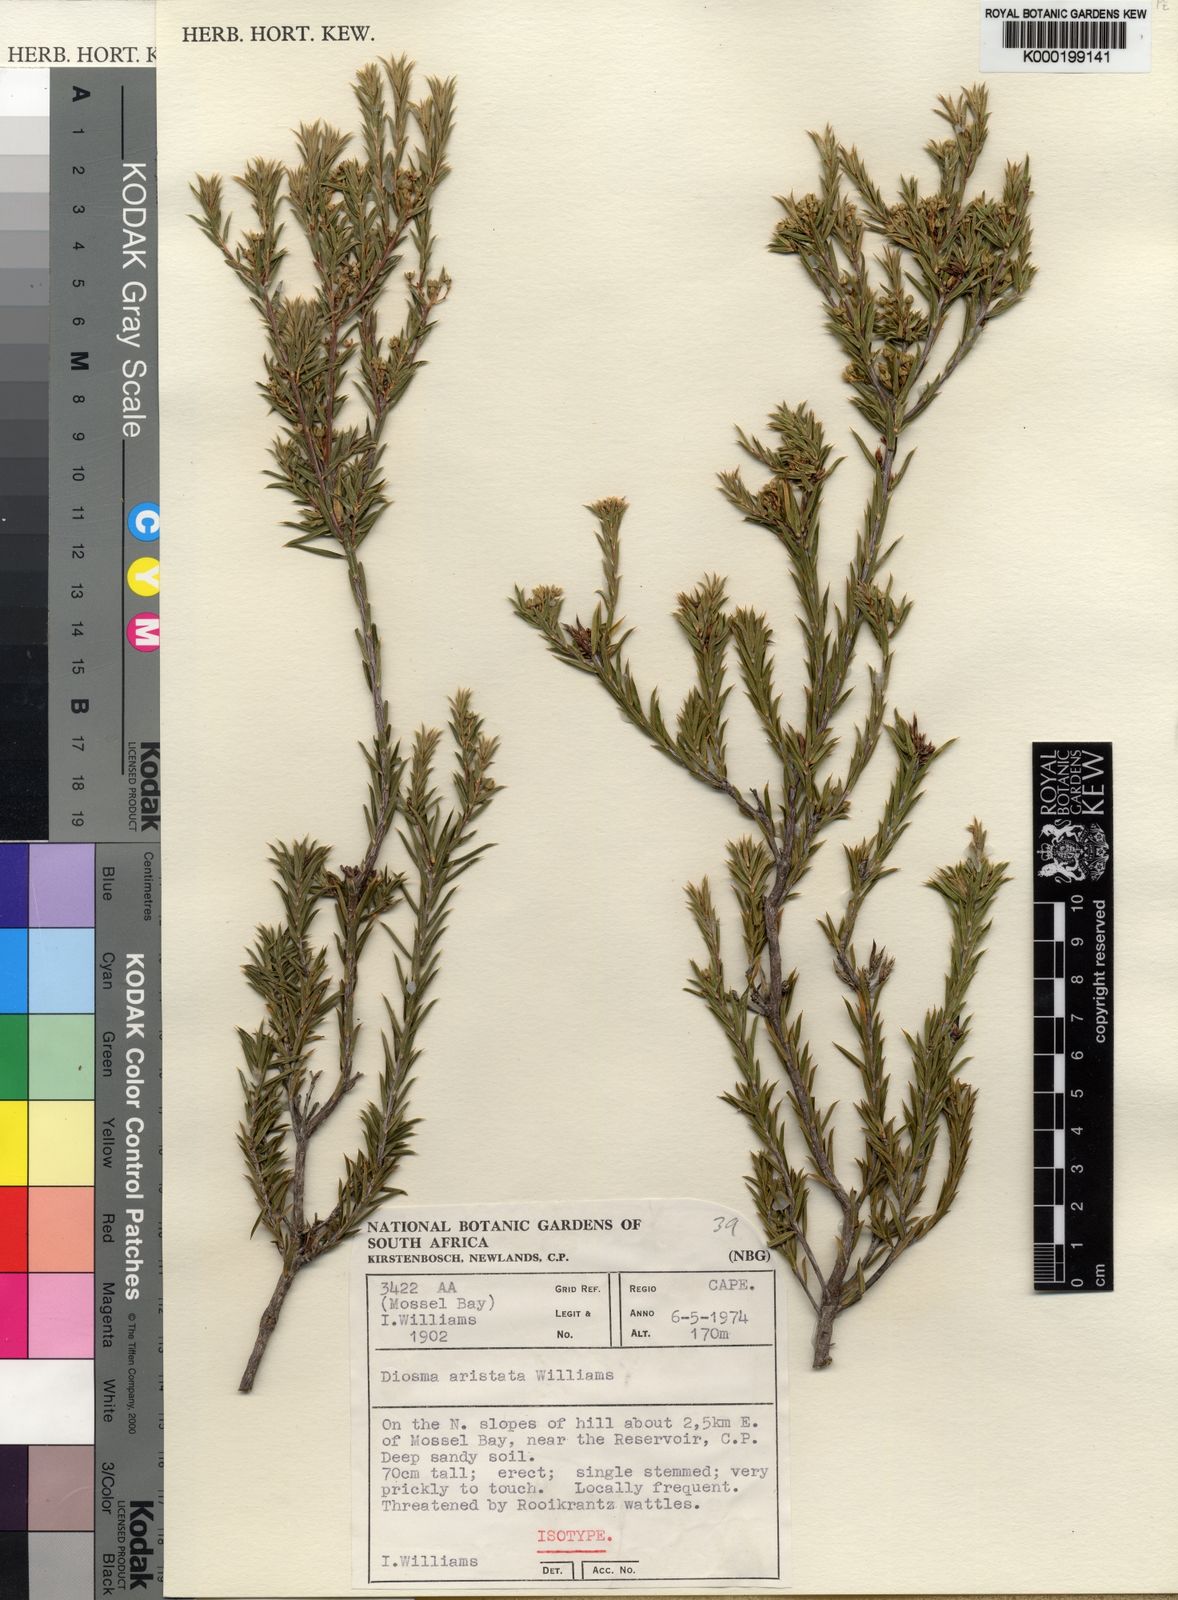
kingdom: Plantae
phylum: Tracheophyta
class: Magnoliopsida
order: Sapindales
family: Rutaceae
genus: Diosma
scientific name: Diosma aristata
